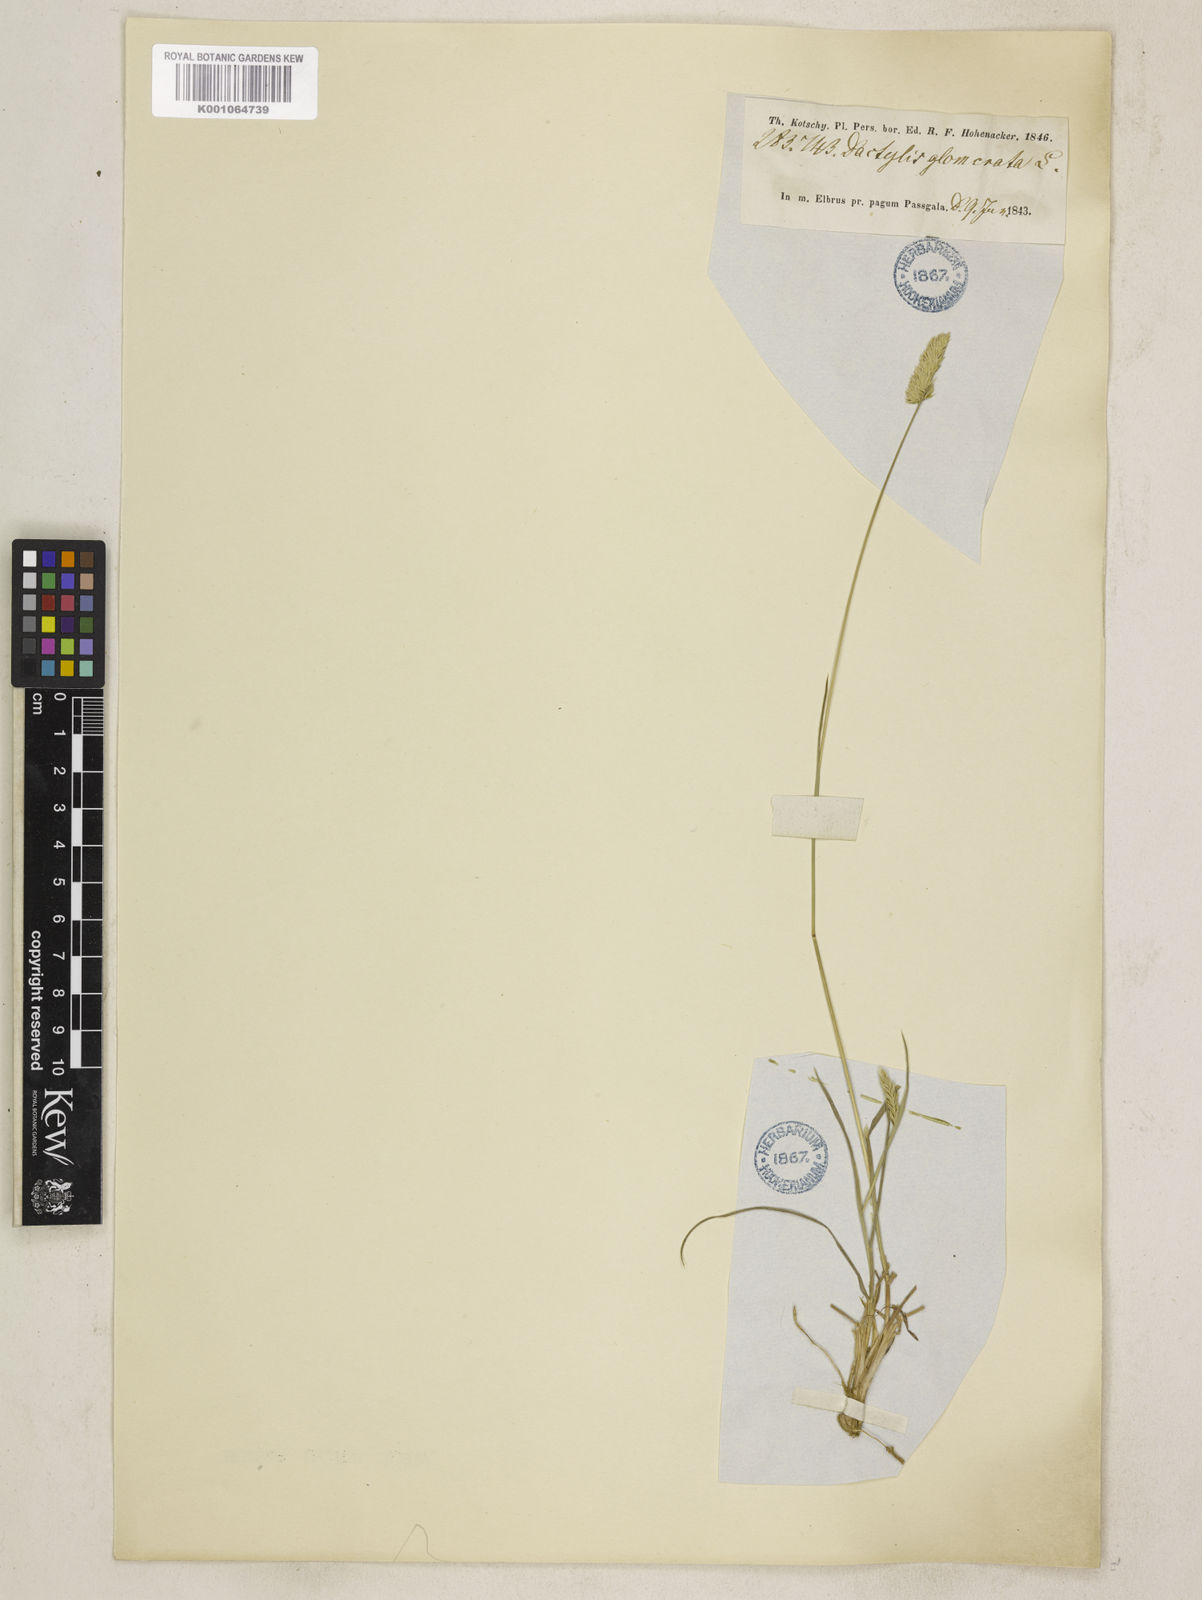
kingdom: Plantae
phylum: Tracheophyta
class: Liliopsida
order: Poales
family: Poaceae
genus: Dactylis
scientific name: Dactylis glomerata
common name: Orchardgrass
